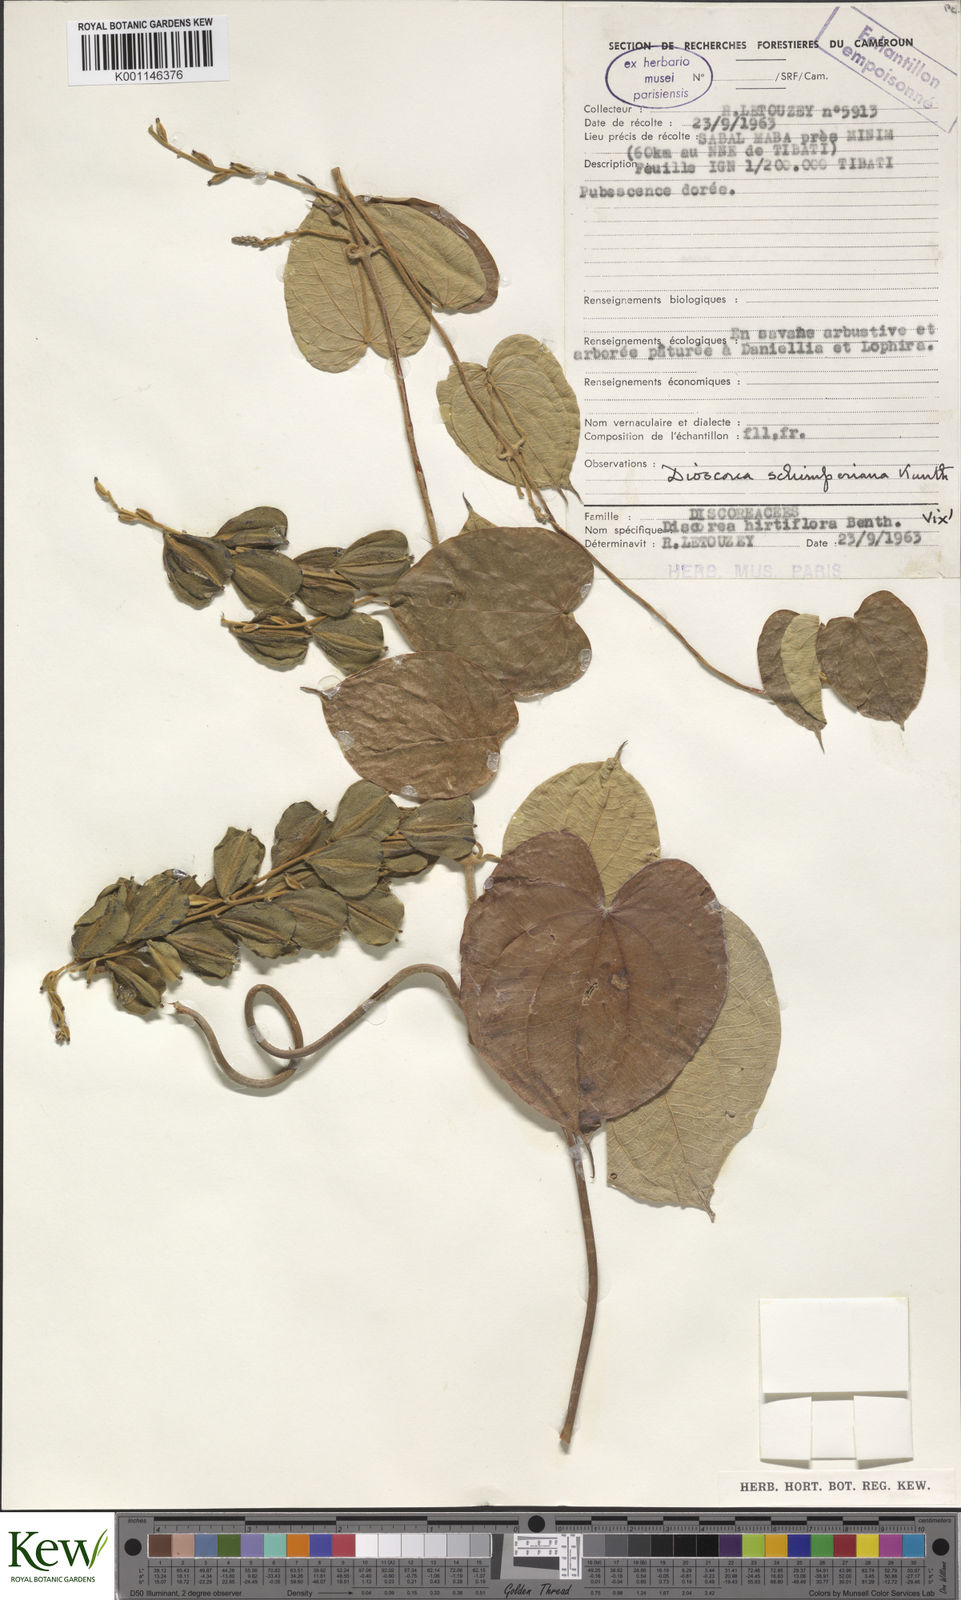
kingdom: Plantae
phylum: Tracheophyta
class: Liliopsida
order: Dioscoreales
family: Dioscoreaceae
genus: Dioscorea
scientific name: Dioscorea schimperiana
